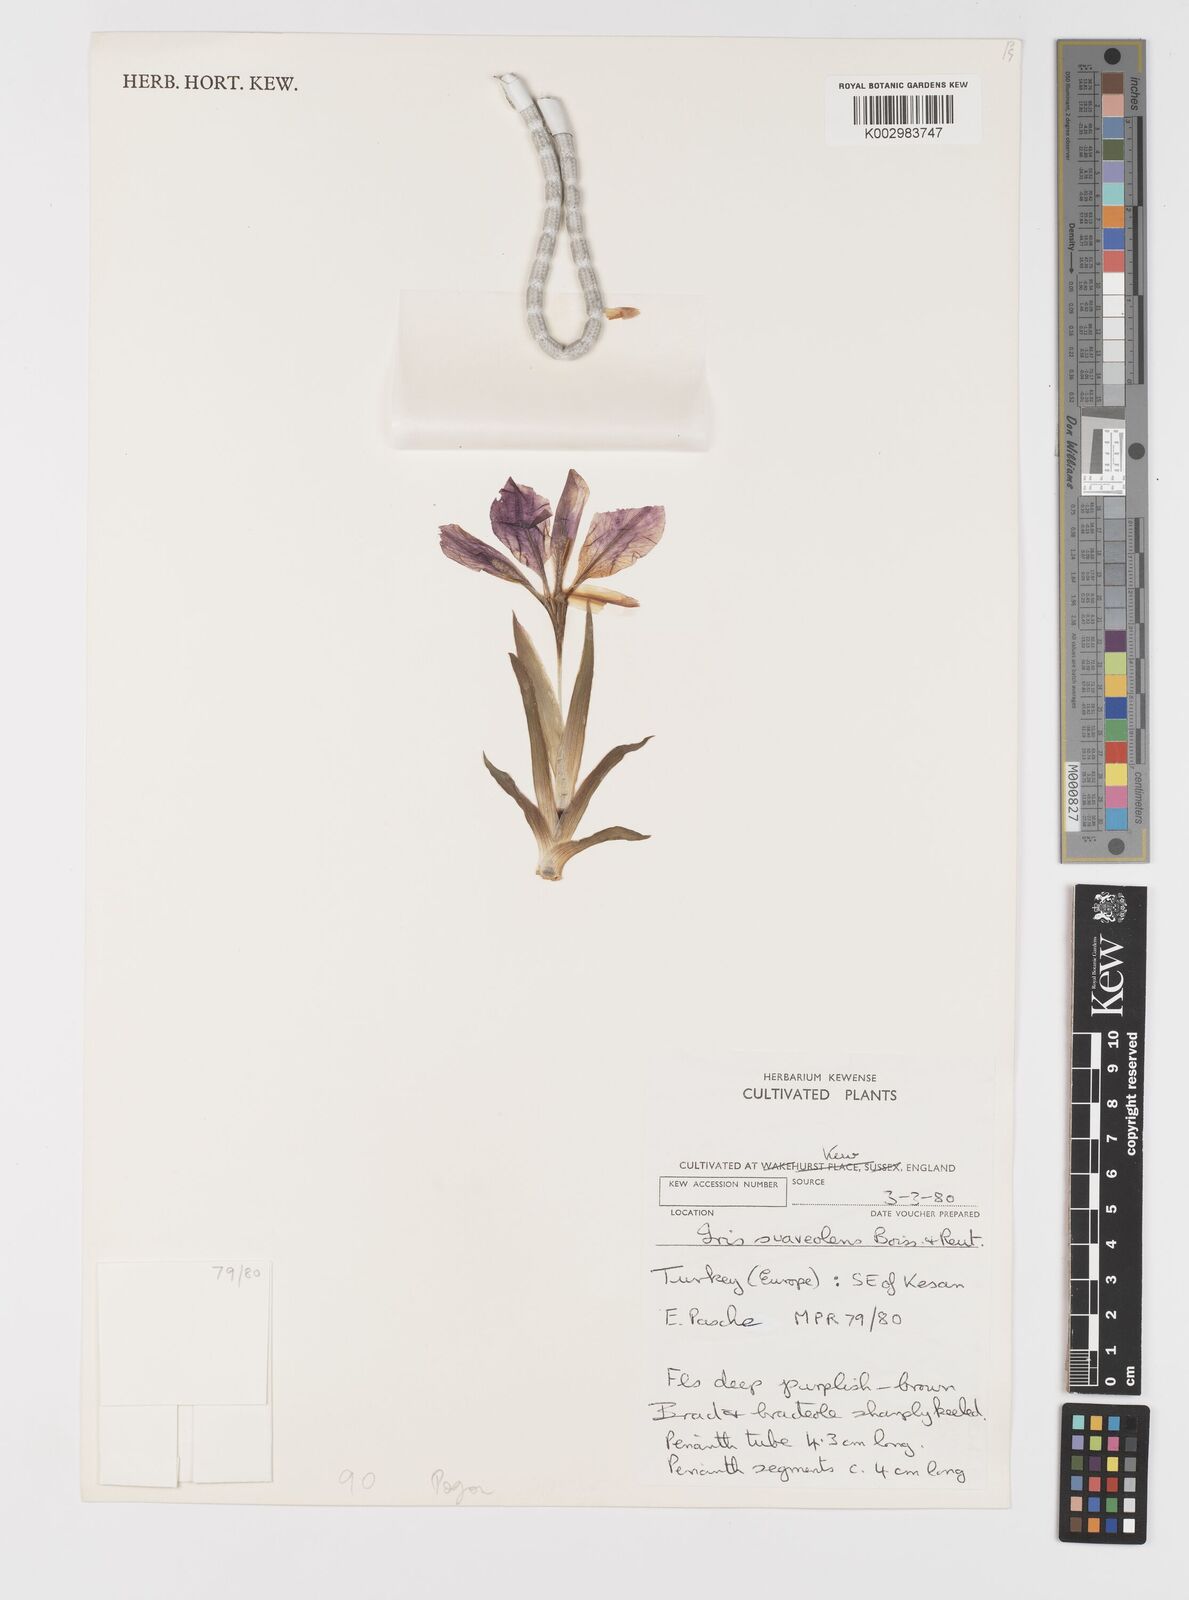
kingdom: Plantae
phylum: Tracheophyta
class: Liliopsida
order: Asparagales
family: Iridaceae
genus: Iris
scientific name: Iris suaveolens
